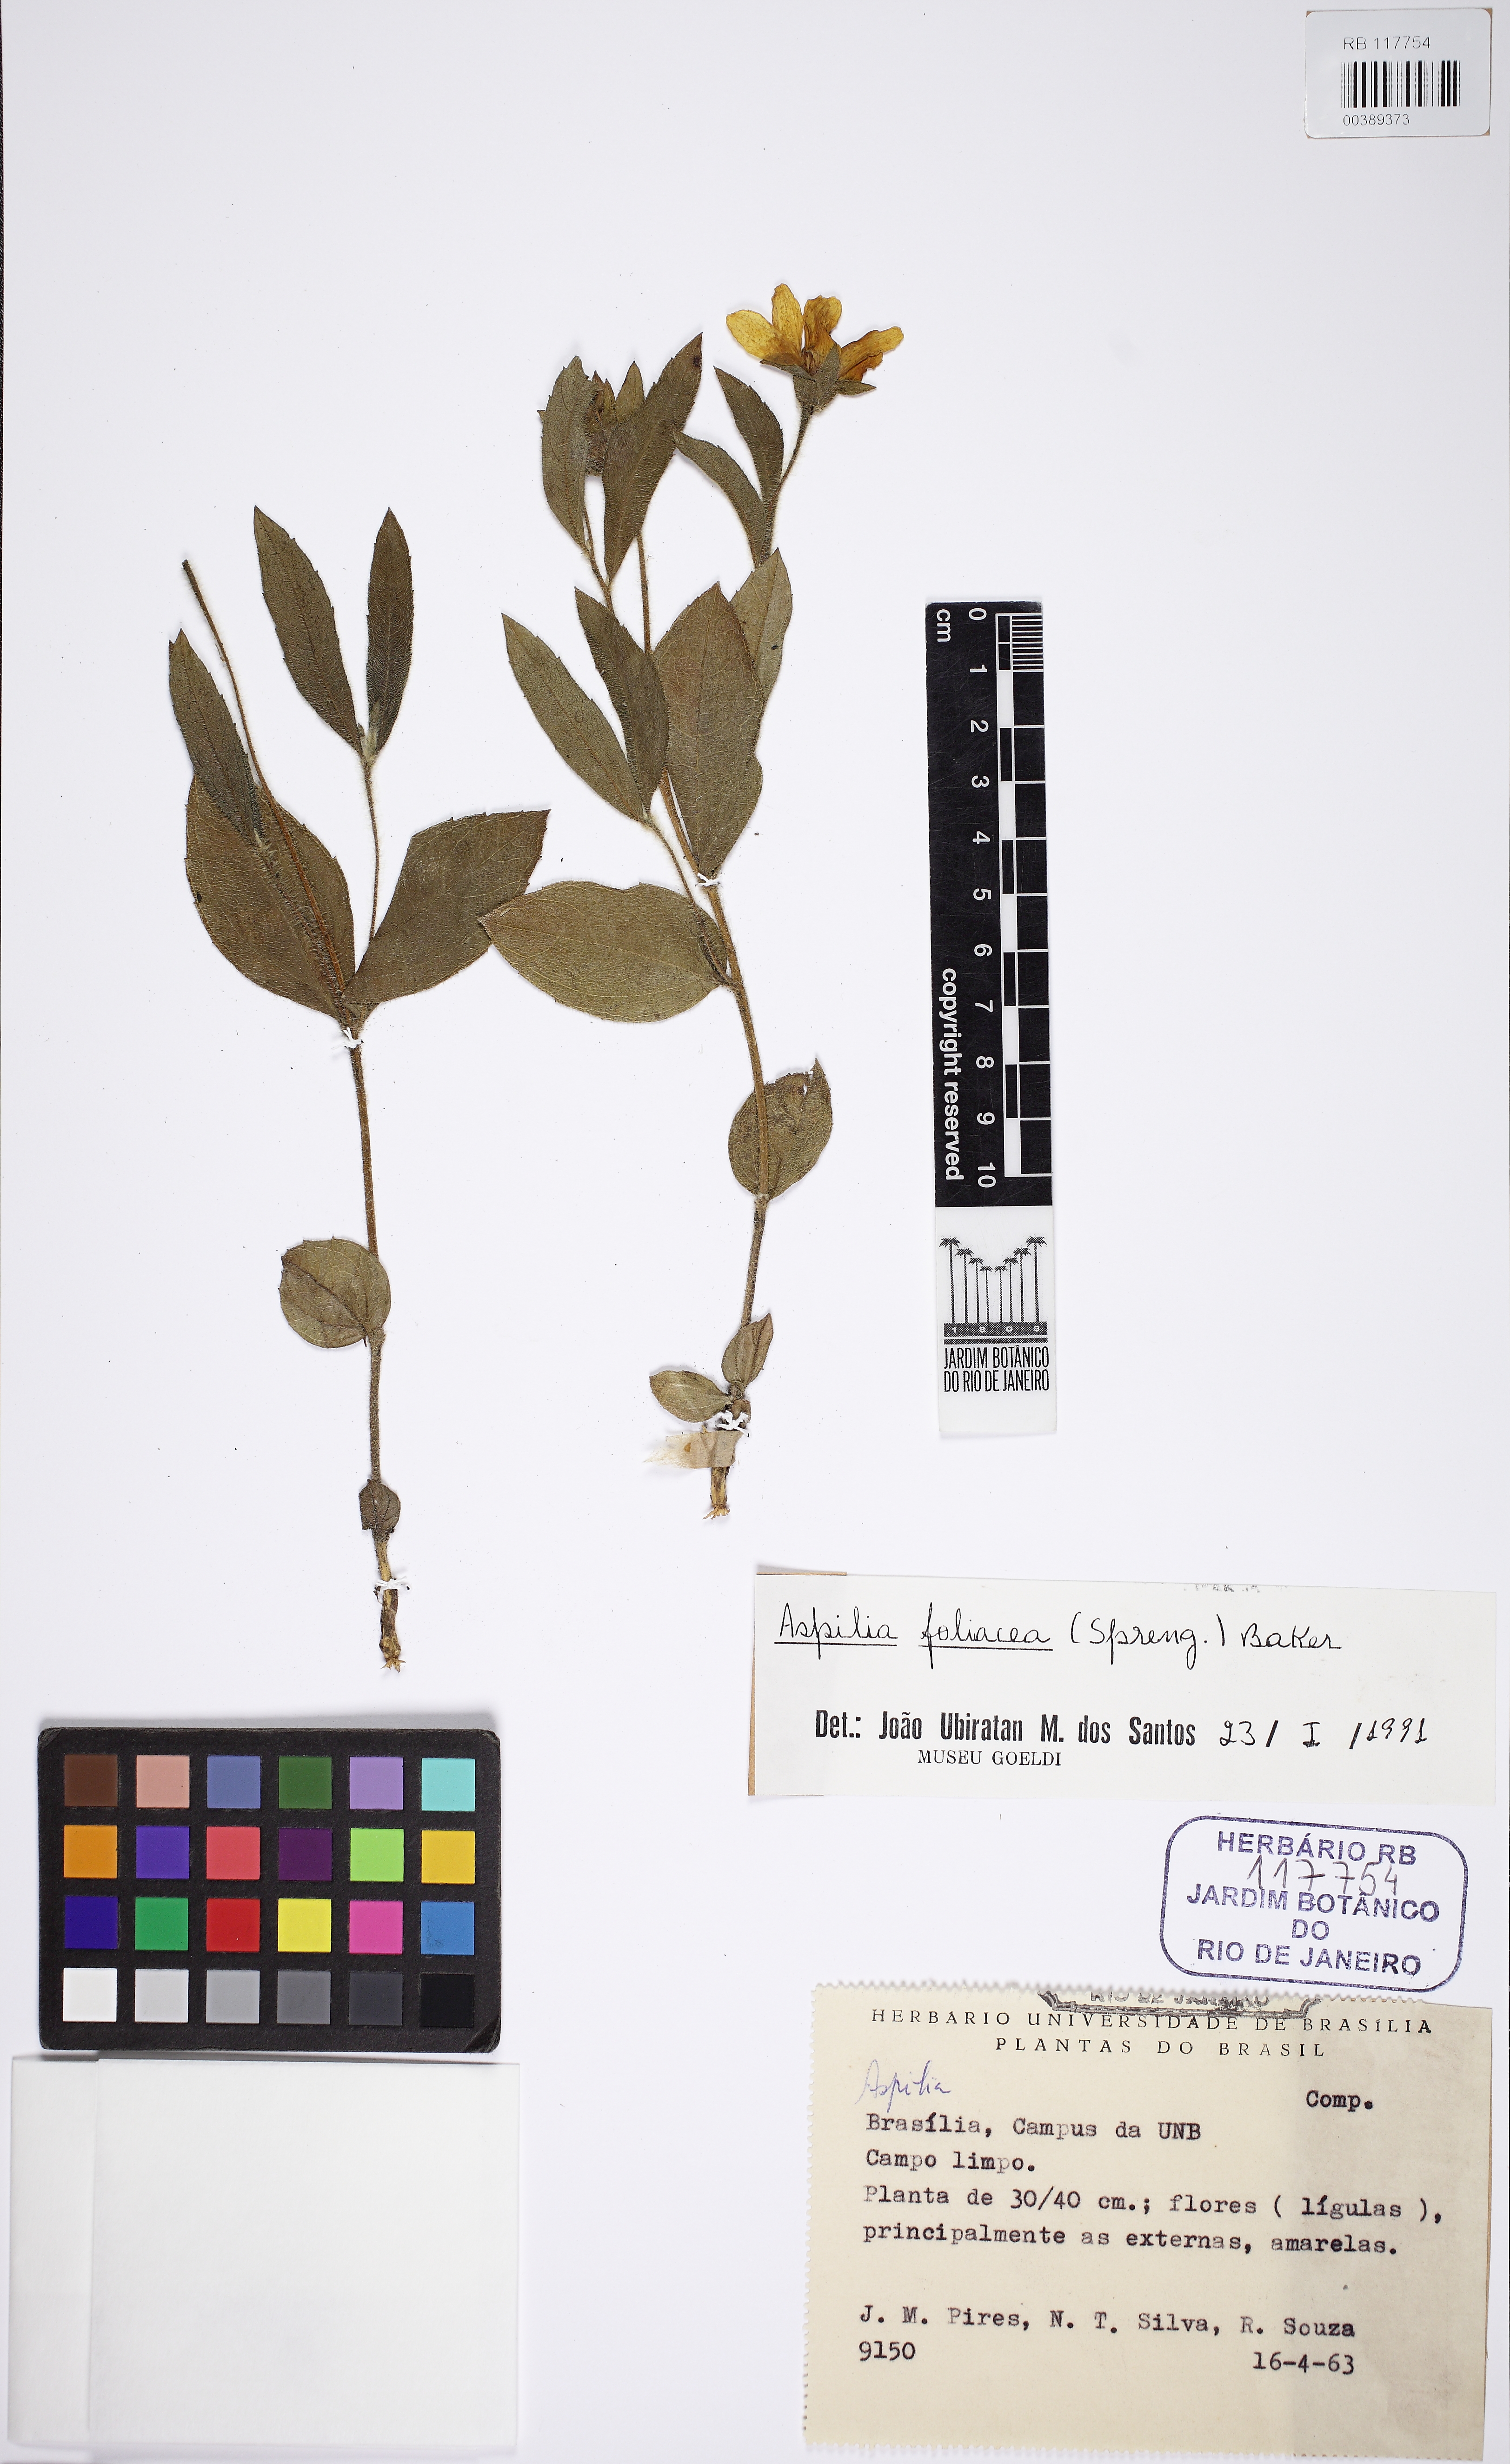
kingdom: Plantae
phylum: Tracheophyta
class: Magnoliopsida
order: Asterales
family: Asteraceae
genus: Wedelia
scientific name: Wedelia foliacea
